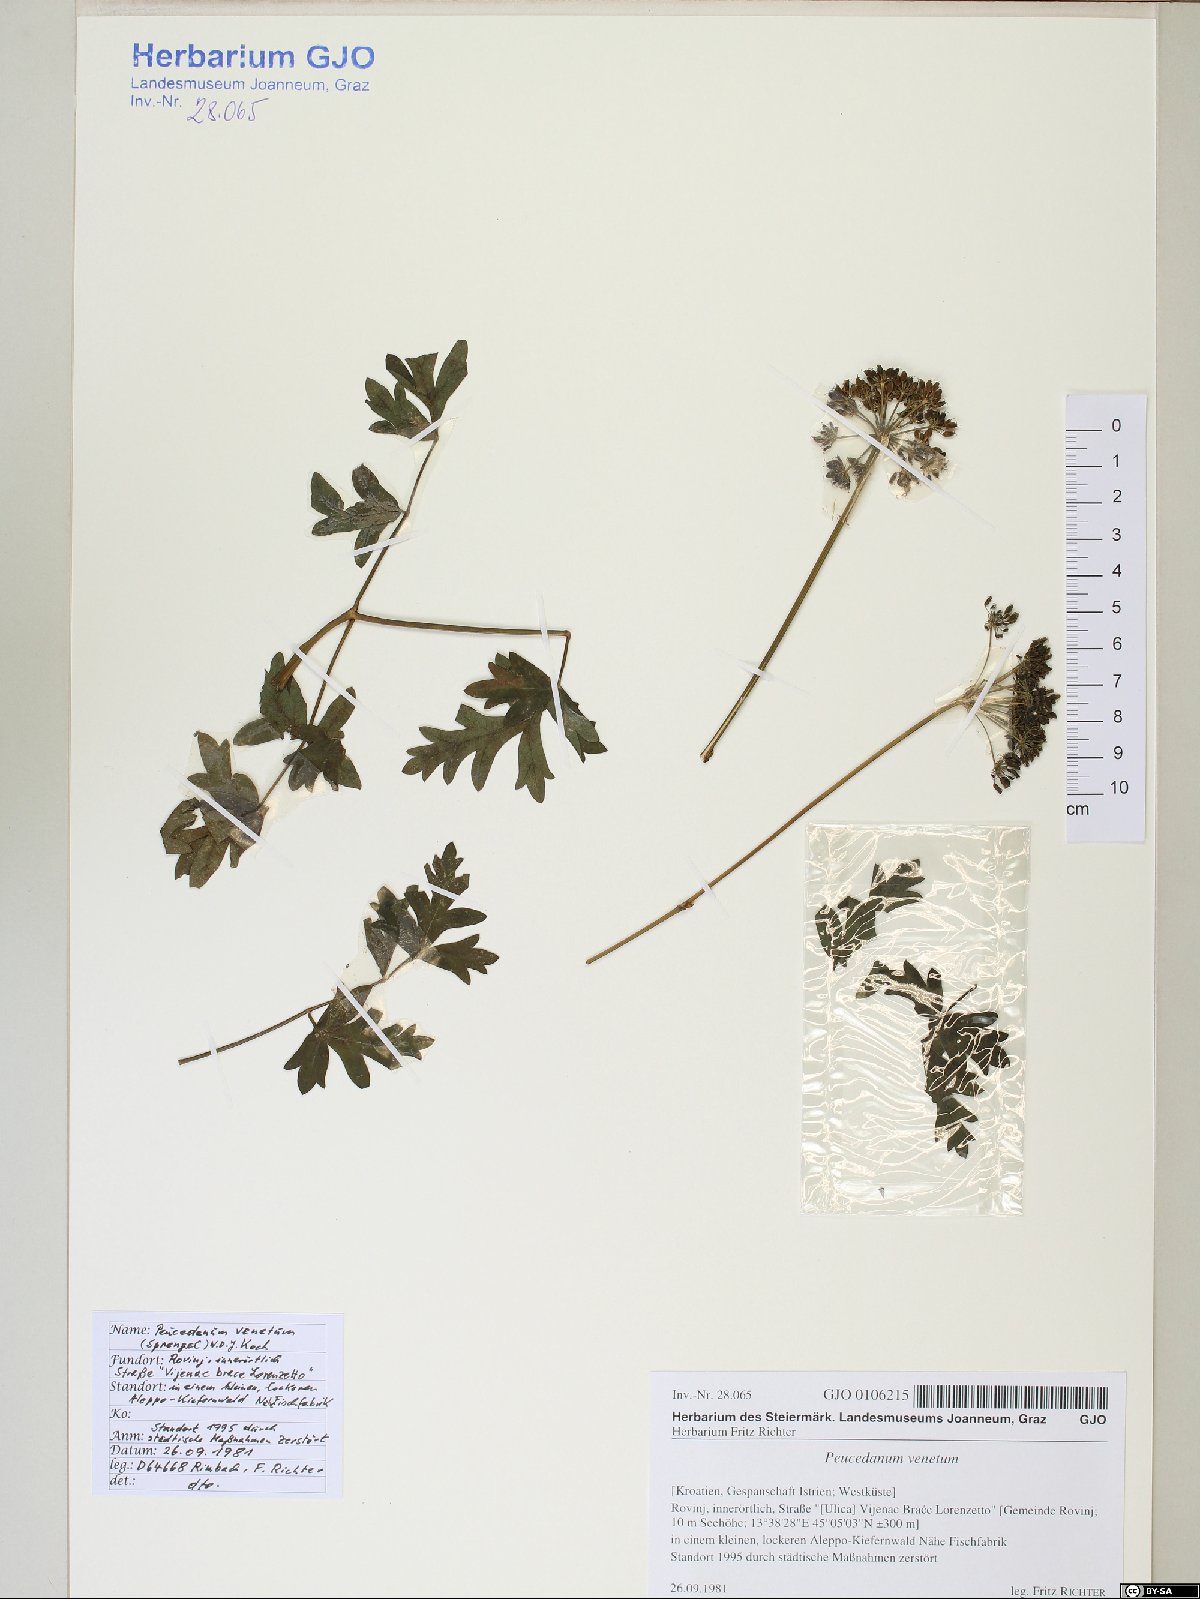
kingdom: Plantae
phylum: Tracheophyta
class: Magnoliopsida
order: Apiales
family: Apiaceae
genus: Xanthoselinum
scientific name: Xanthoselinum alsaticum
